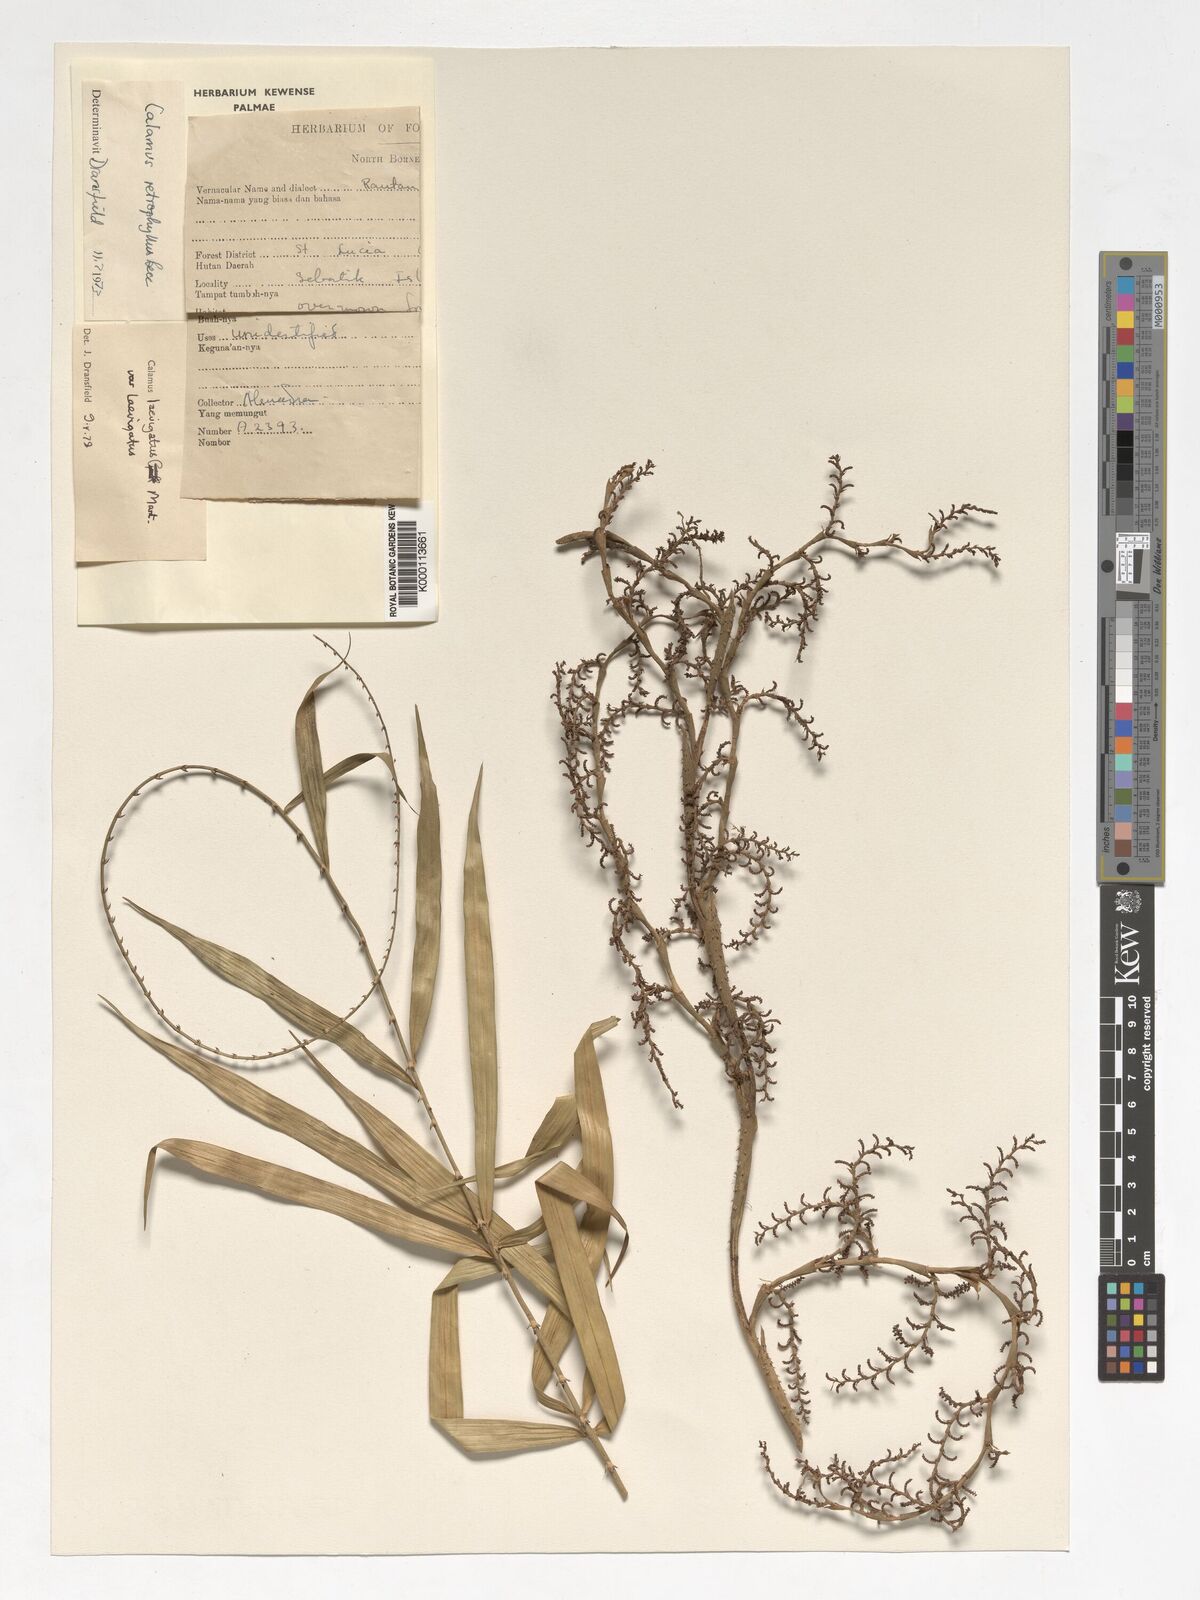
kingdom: Plantae
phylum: Tracheophyta
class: Liliopsida
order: Arecales
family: Arecaceae
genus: Calamus
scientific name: Calamus
